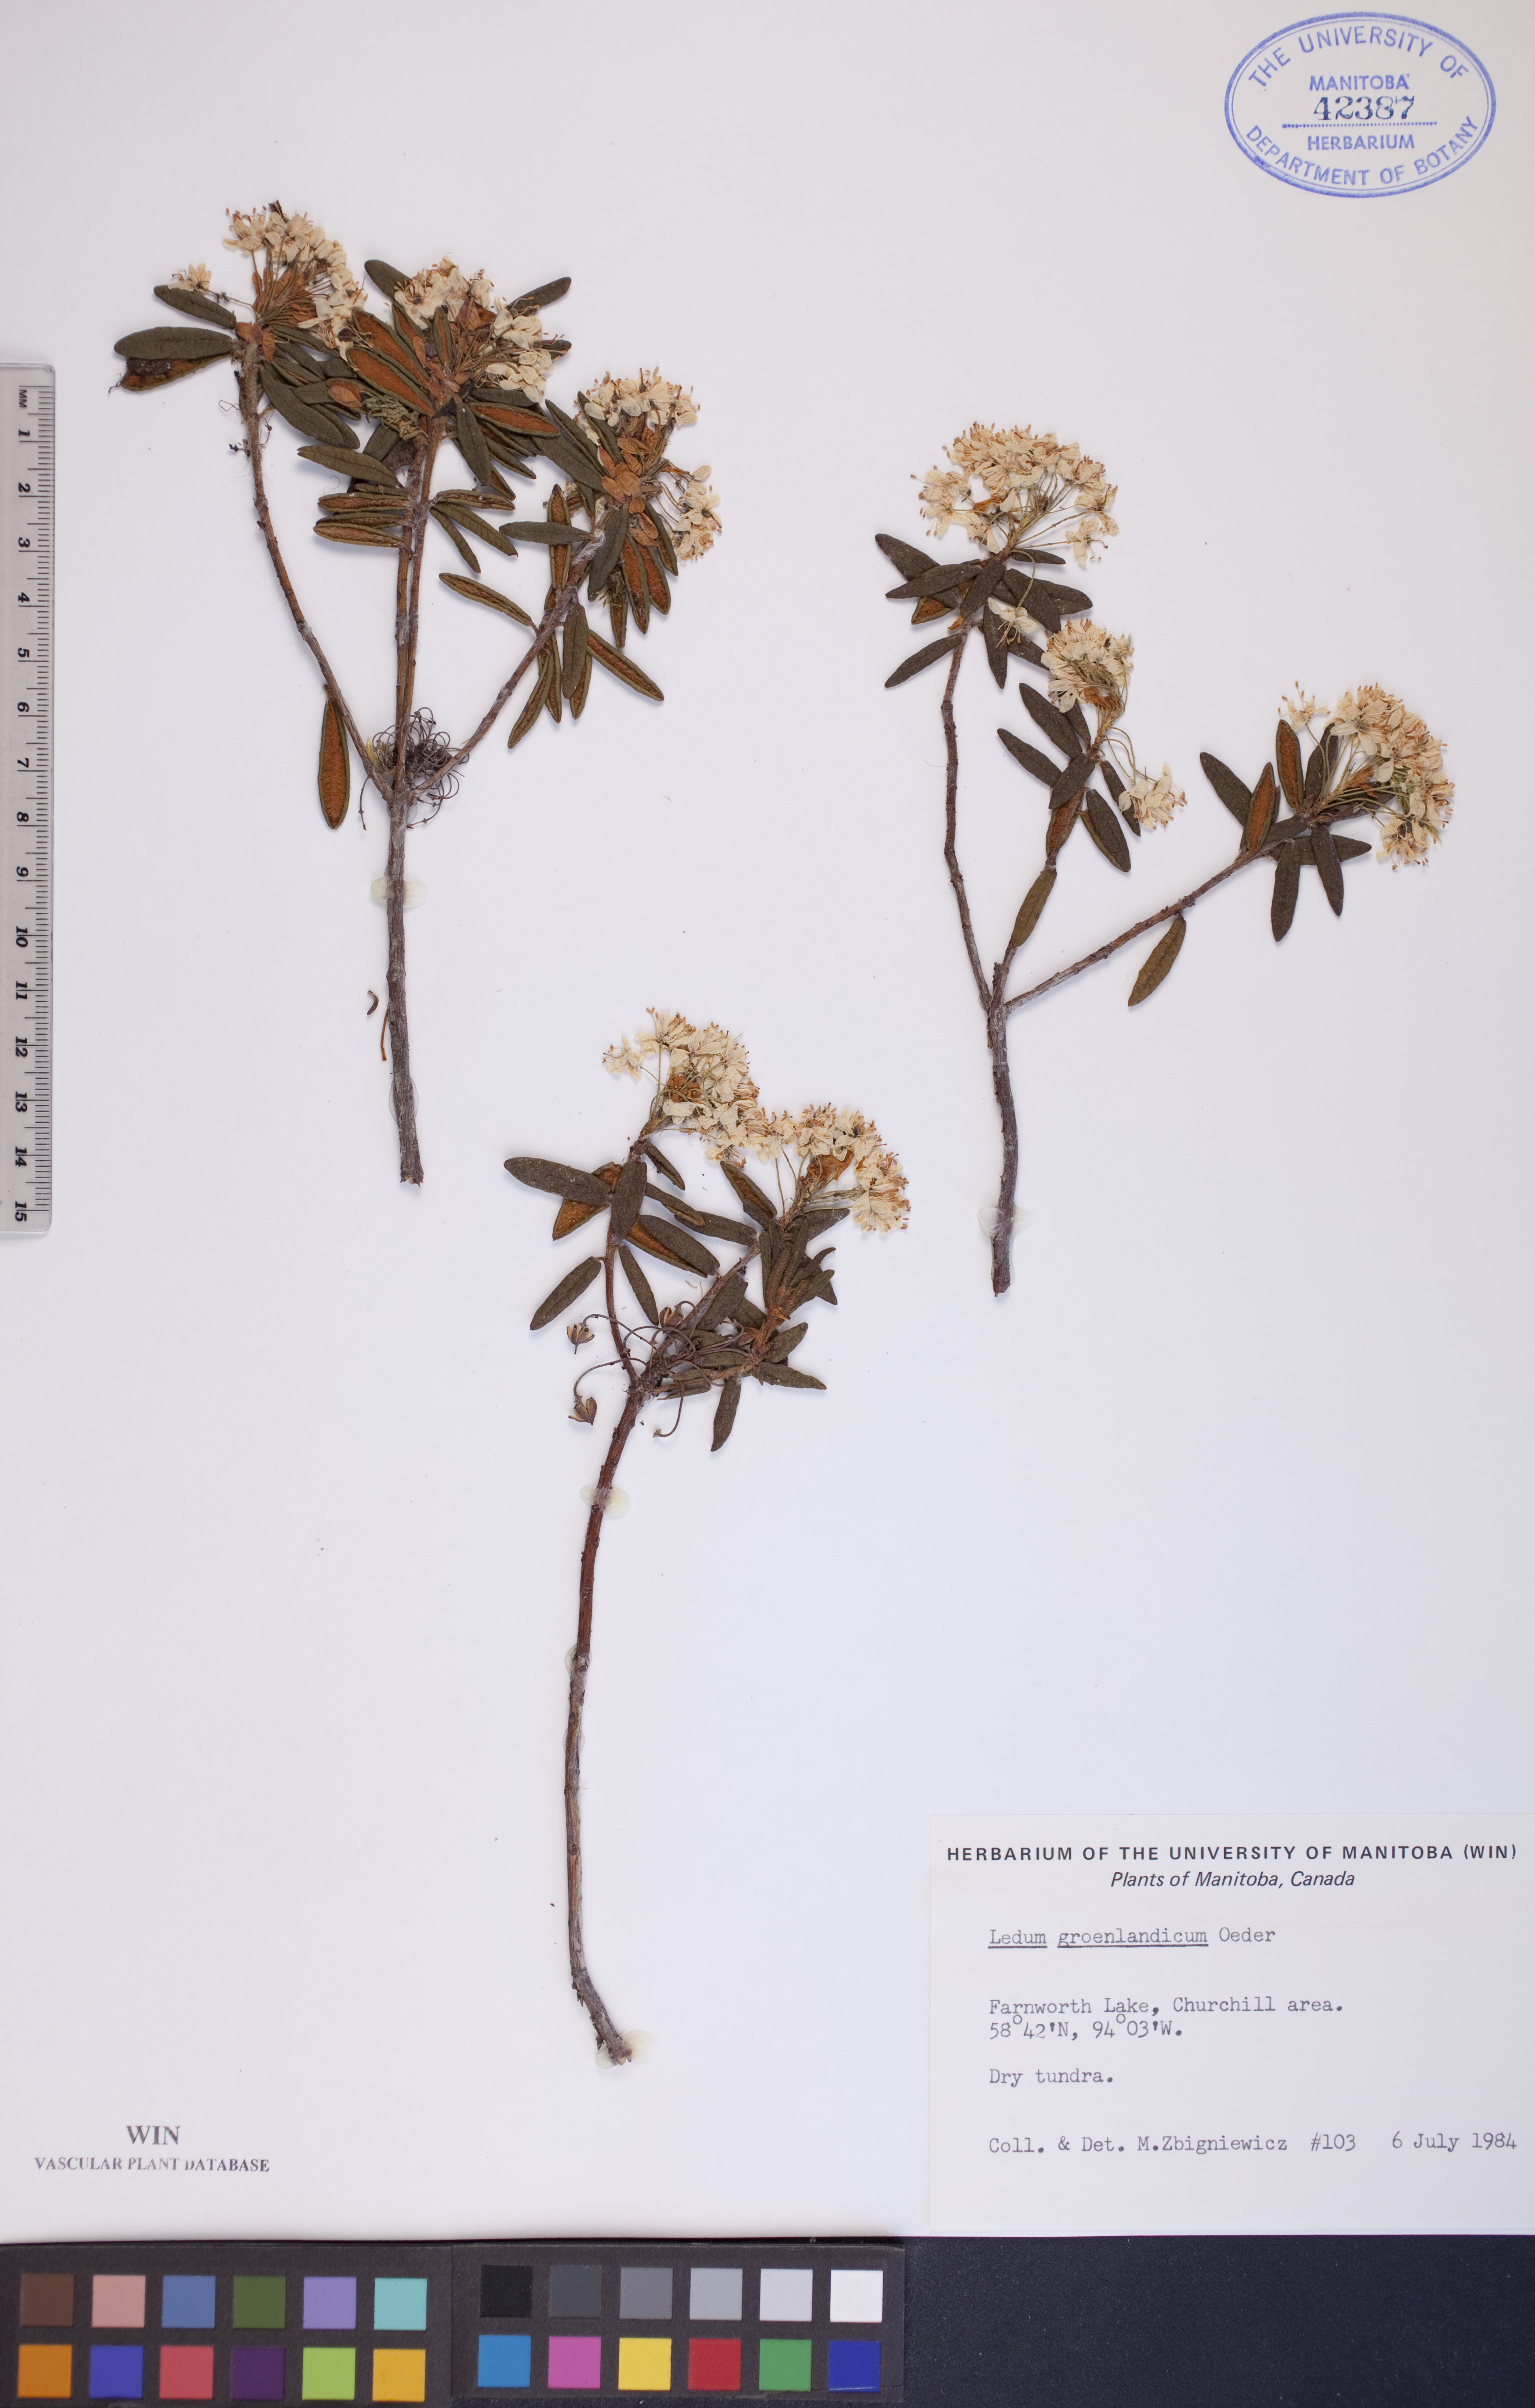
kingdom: Plantae
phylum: Tracheophyta
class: Magnoliopsida
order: Ericales
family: Ericaceae
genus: Rhododendron
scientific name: Rhododendron groenlandicum
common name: Bog labrador tea
